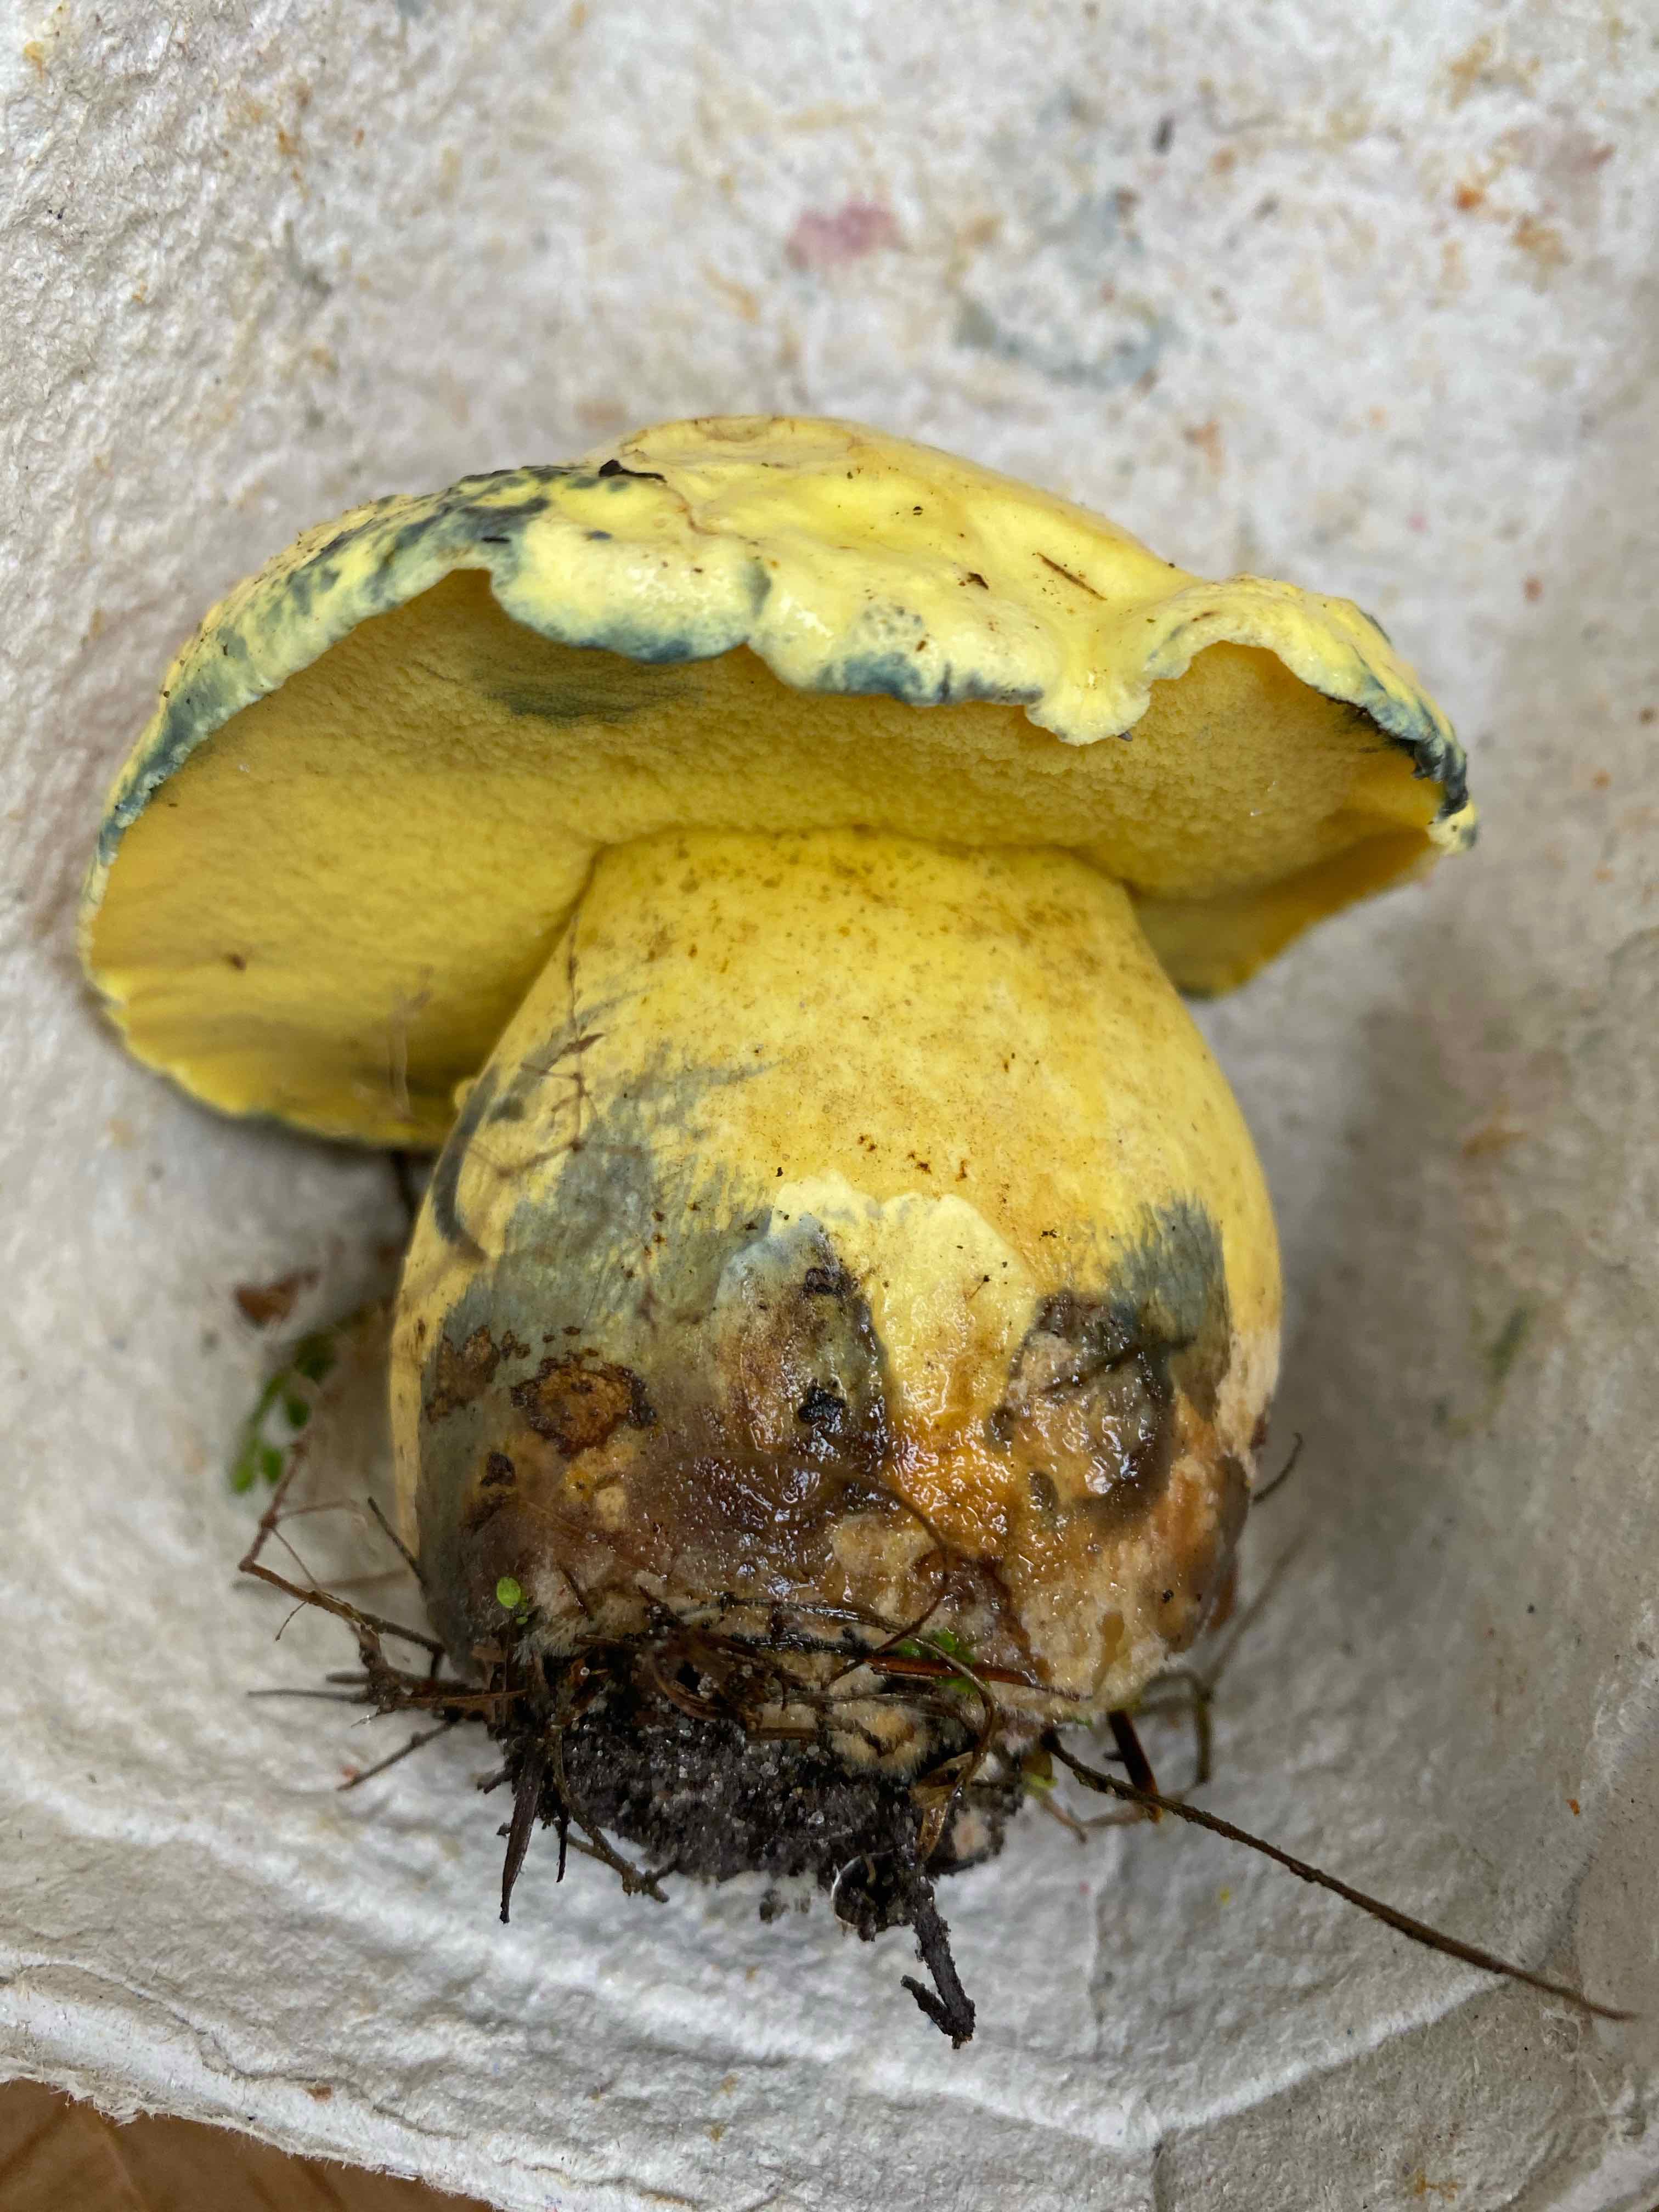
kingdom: Fungi
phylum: Basidiomycota
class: Agaricomycetes
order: Boletales
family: Boletaceae
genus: Neoboletus
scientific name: Neoboletus praestigiator
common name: gul indigorørhat
